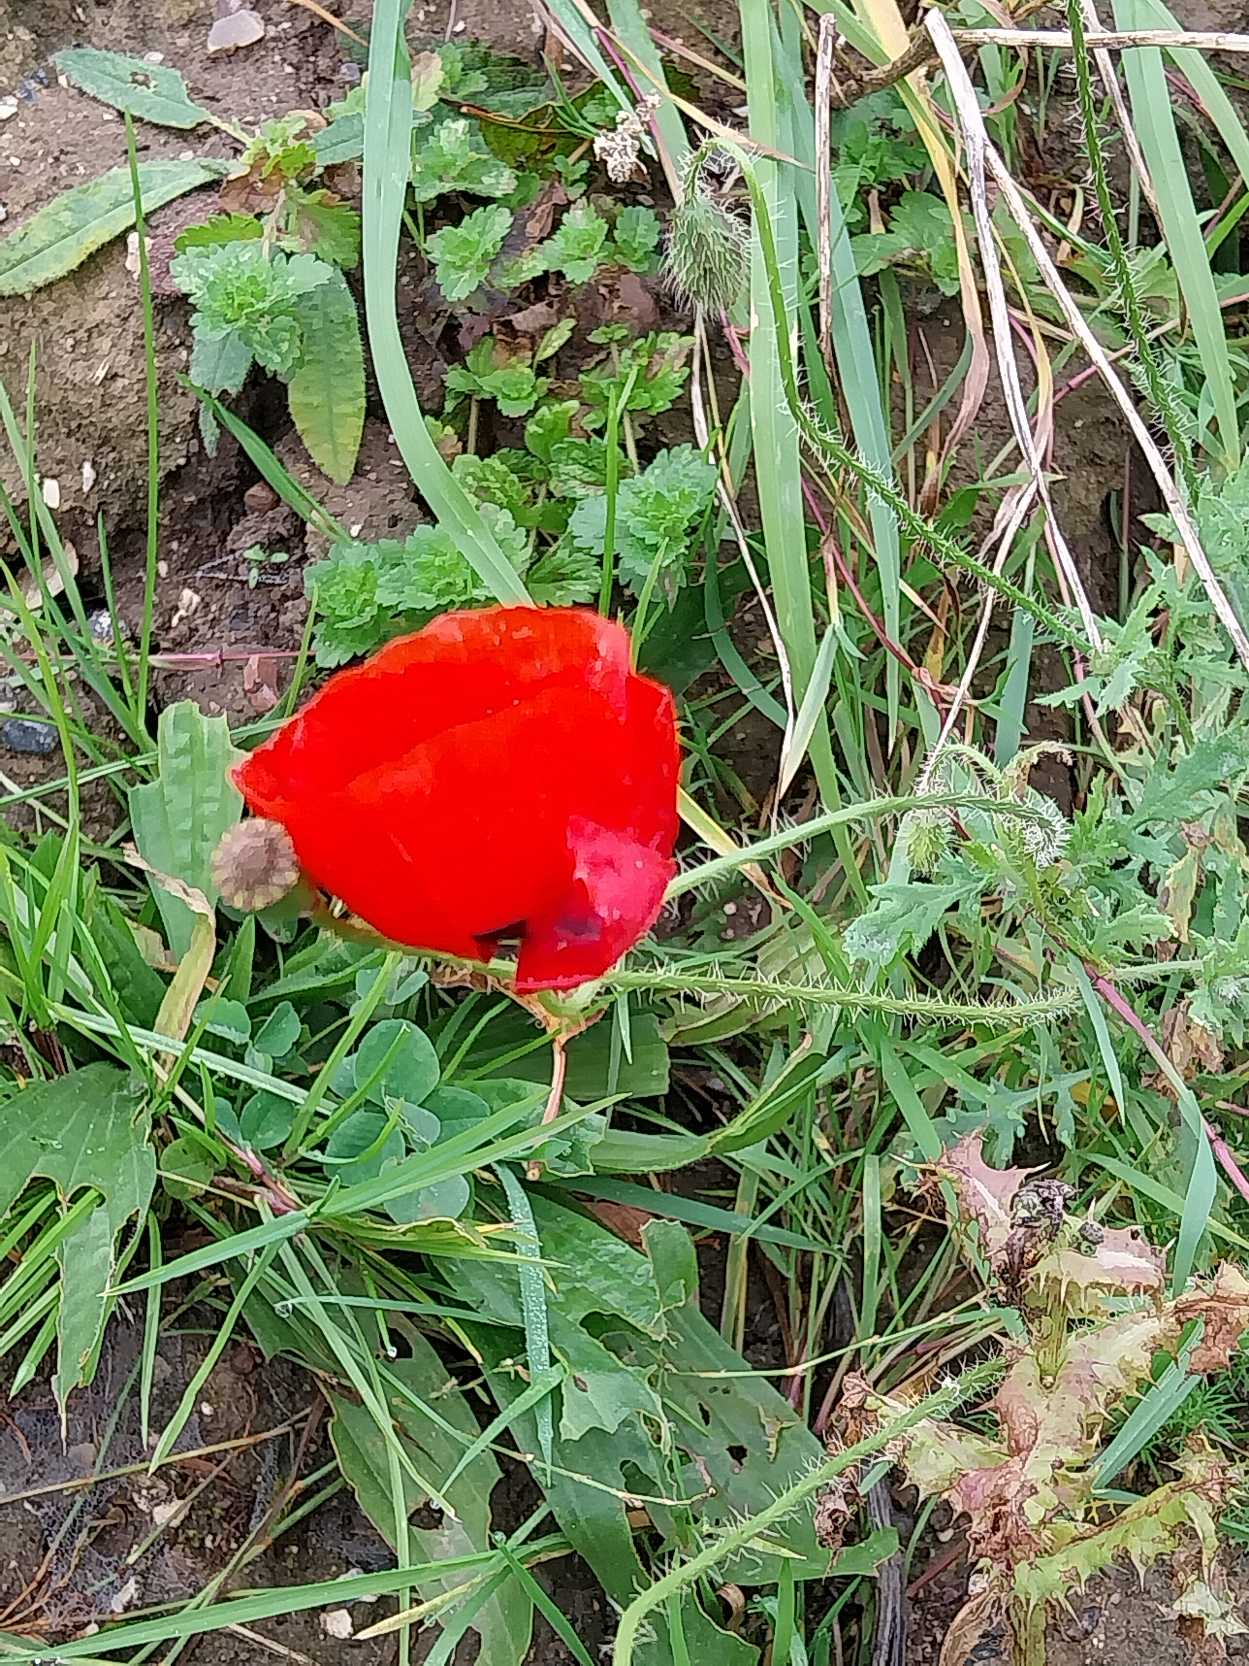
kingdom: Plantae
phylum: Tracheophyta
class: Magnoliopsida
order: Ranunculales
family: Papaveraceae
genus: Papaver
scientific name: Papaver rhoeas
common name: Korn-valmue
